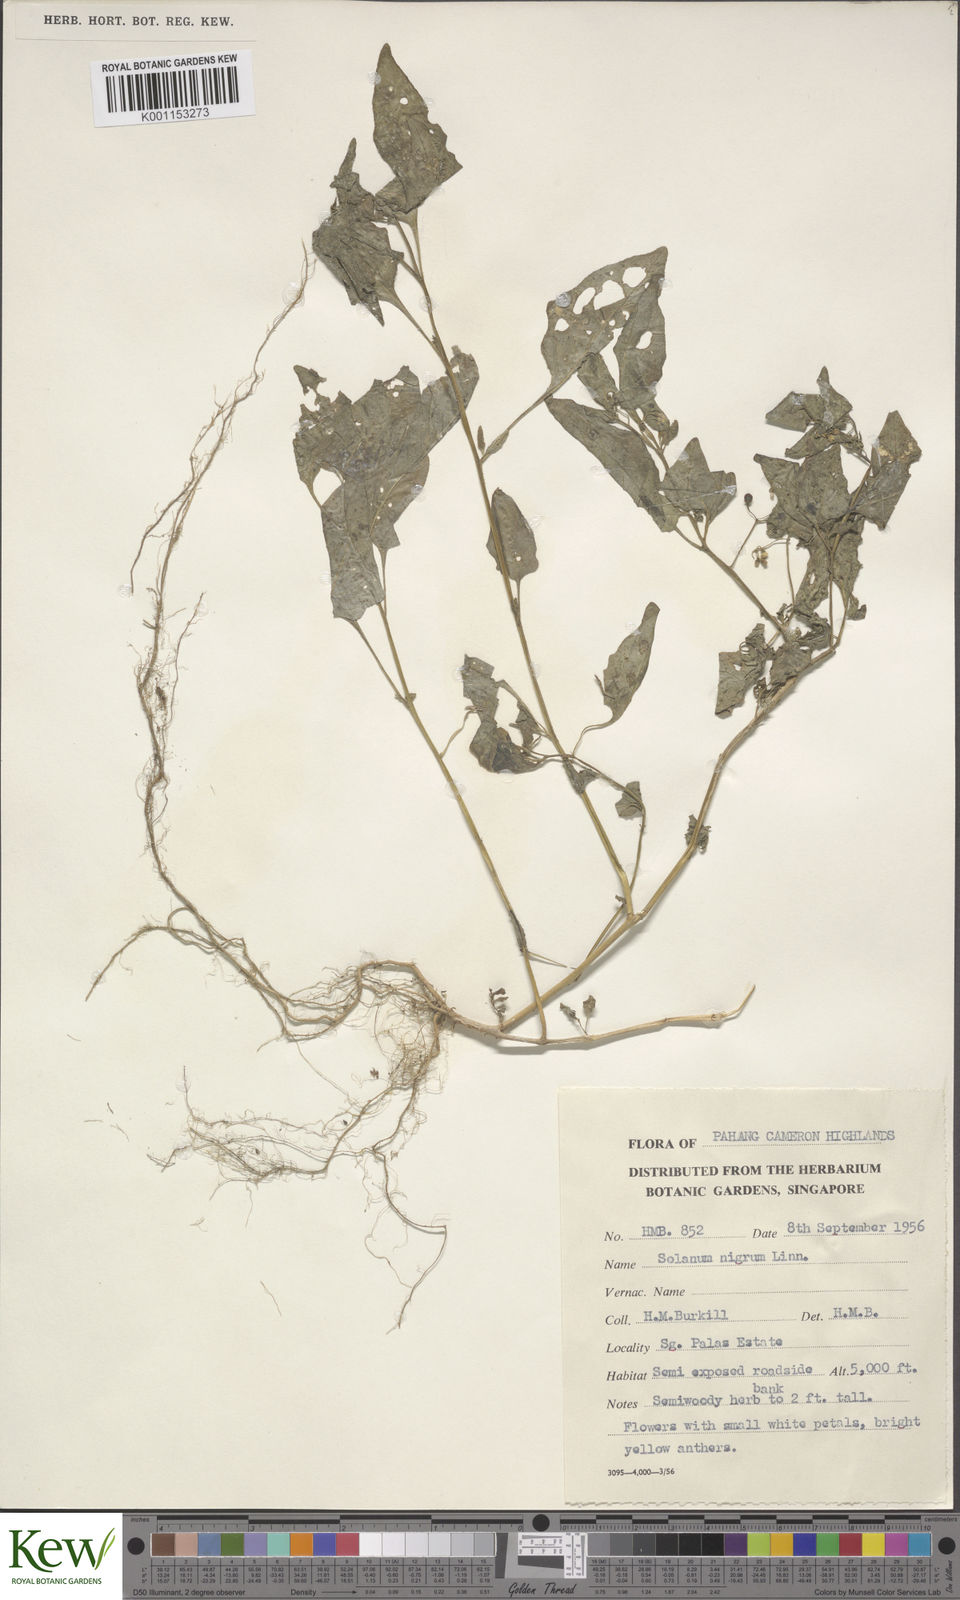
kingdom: Plantae
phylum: Tracheophyta
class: Magnoliopsida
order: Solanales
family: Solanaceae
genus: Solanum
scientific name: Solanum americanum
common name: American black nightshade
